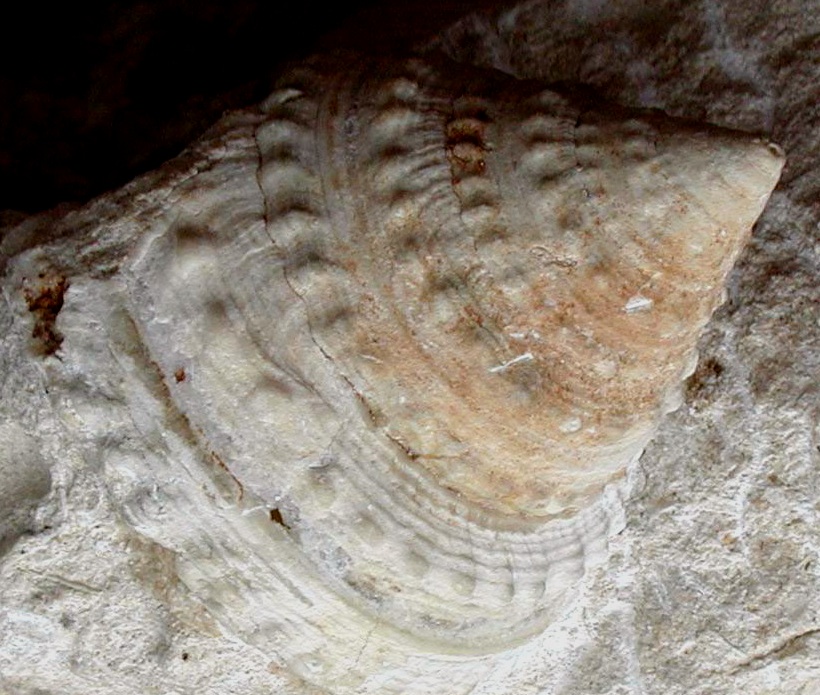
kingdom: Animalia
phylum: Mollusca
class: Gastropoda
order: Pleurotomariida
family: Pleurotomariidae
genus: Pleurotomaria
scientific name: Pleurotomaria hettangiensis
